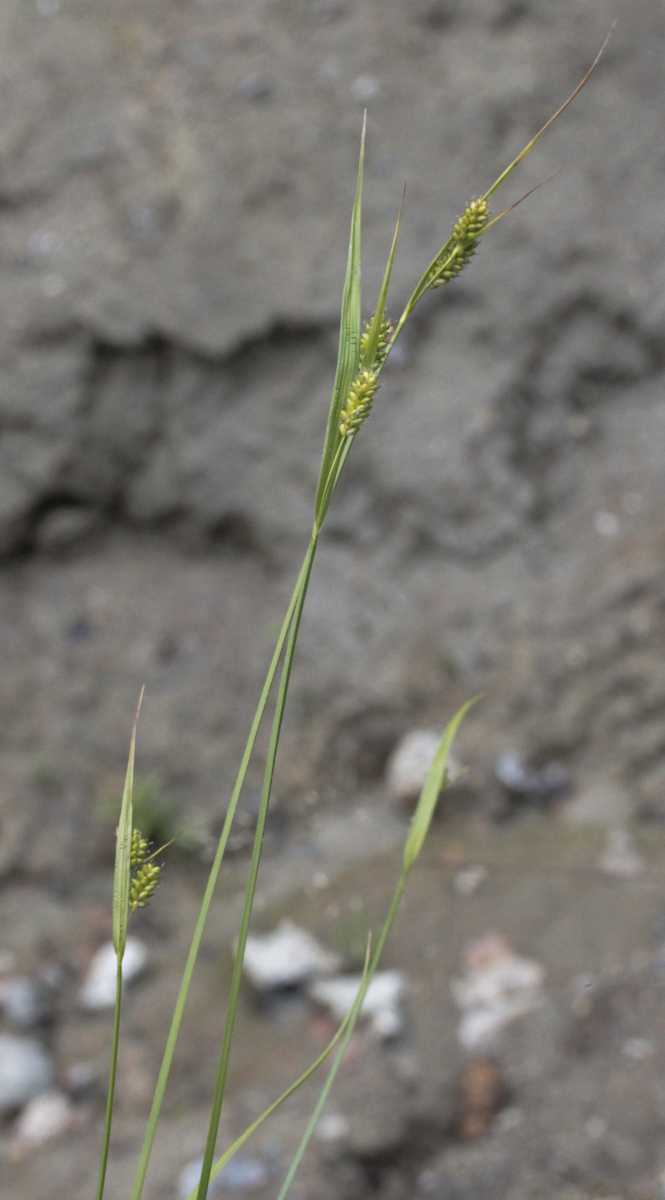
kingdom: Plantae
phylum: Tracheophyta
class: Liliopsida
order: Poales
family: Cyperaceae
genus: Carex
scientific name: Carex pallescens
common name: Pale sedge
